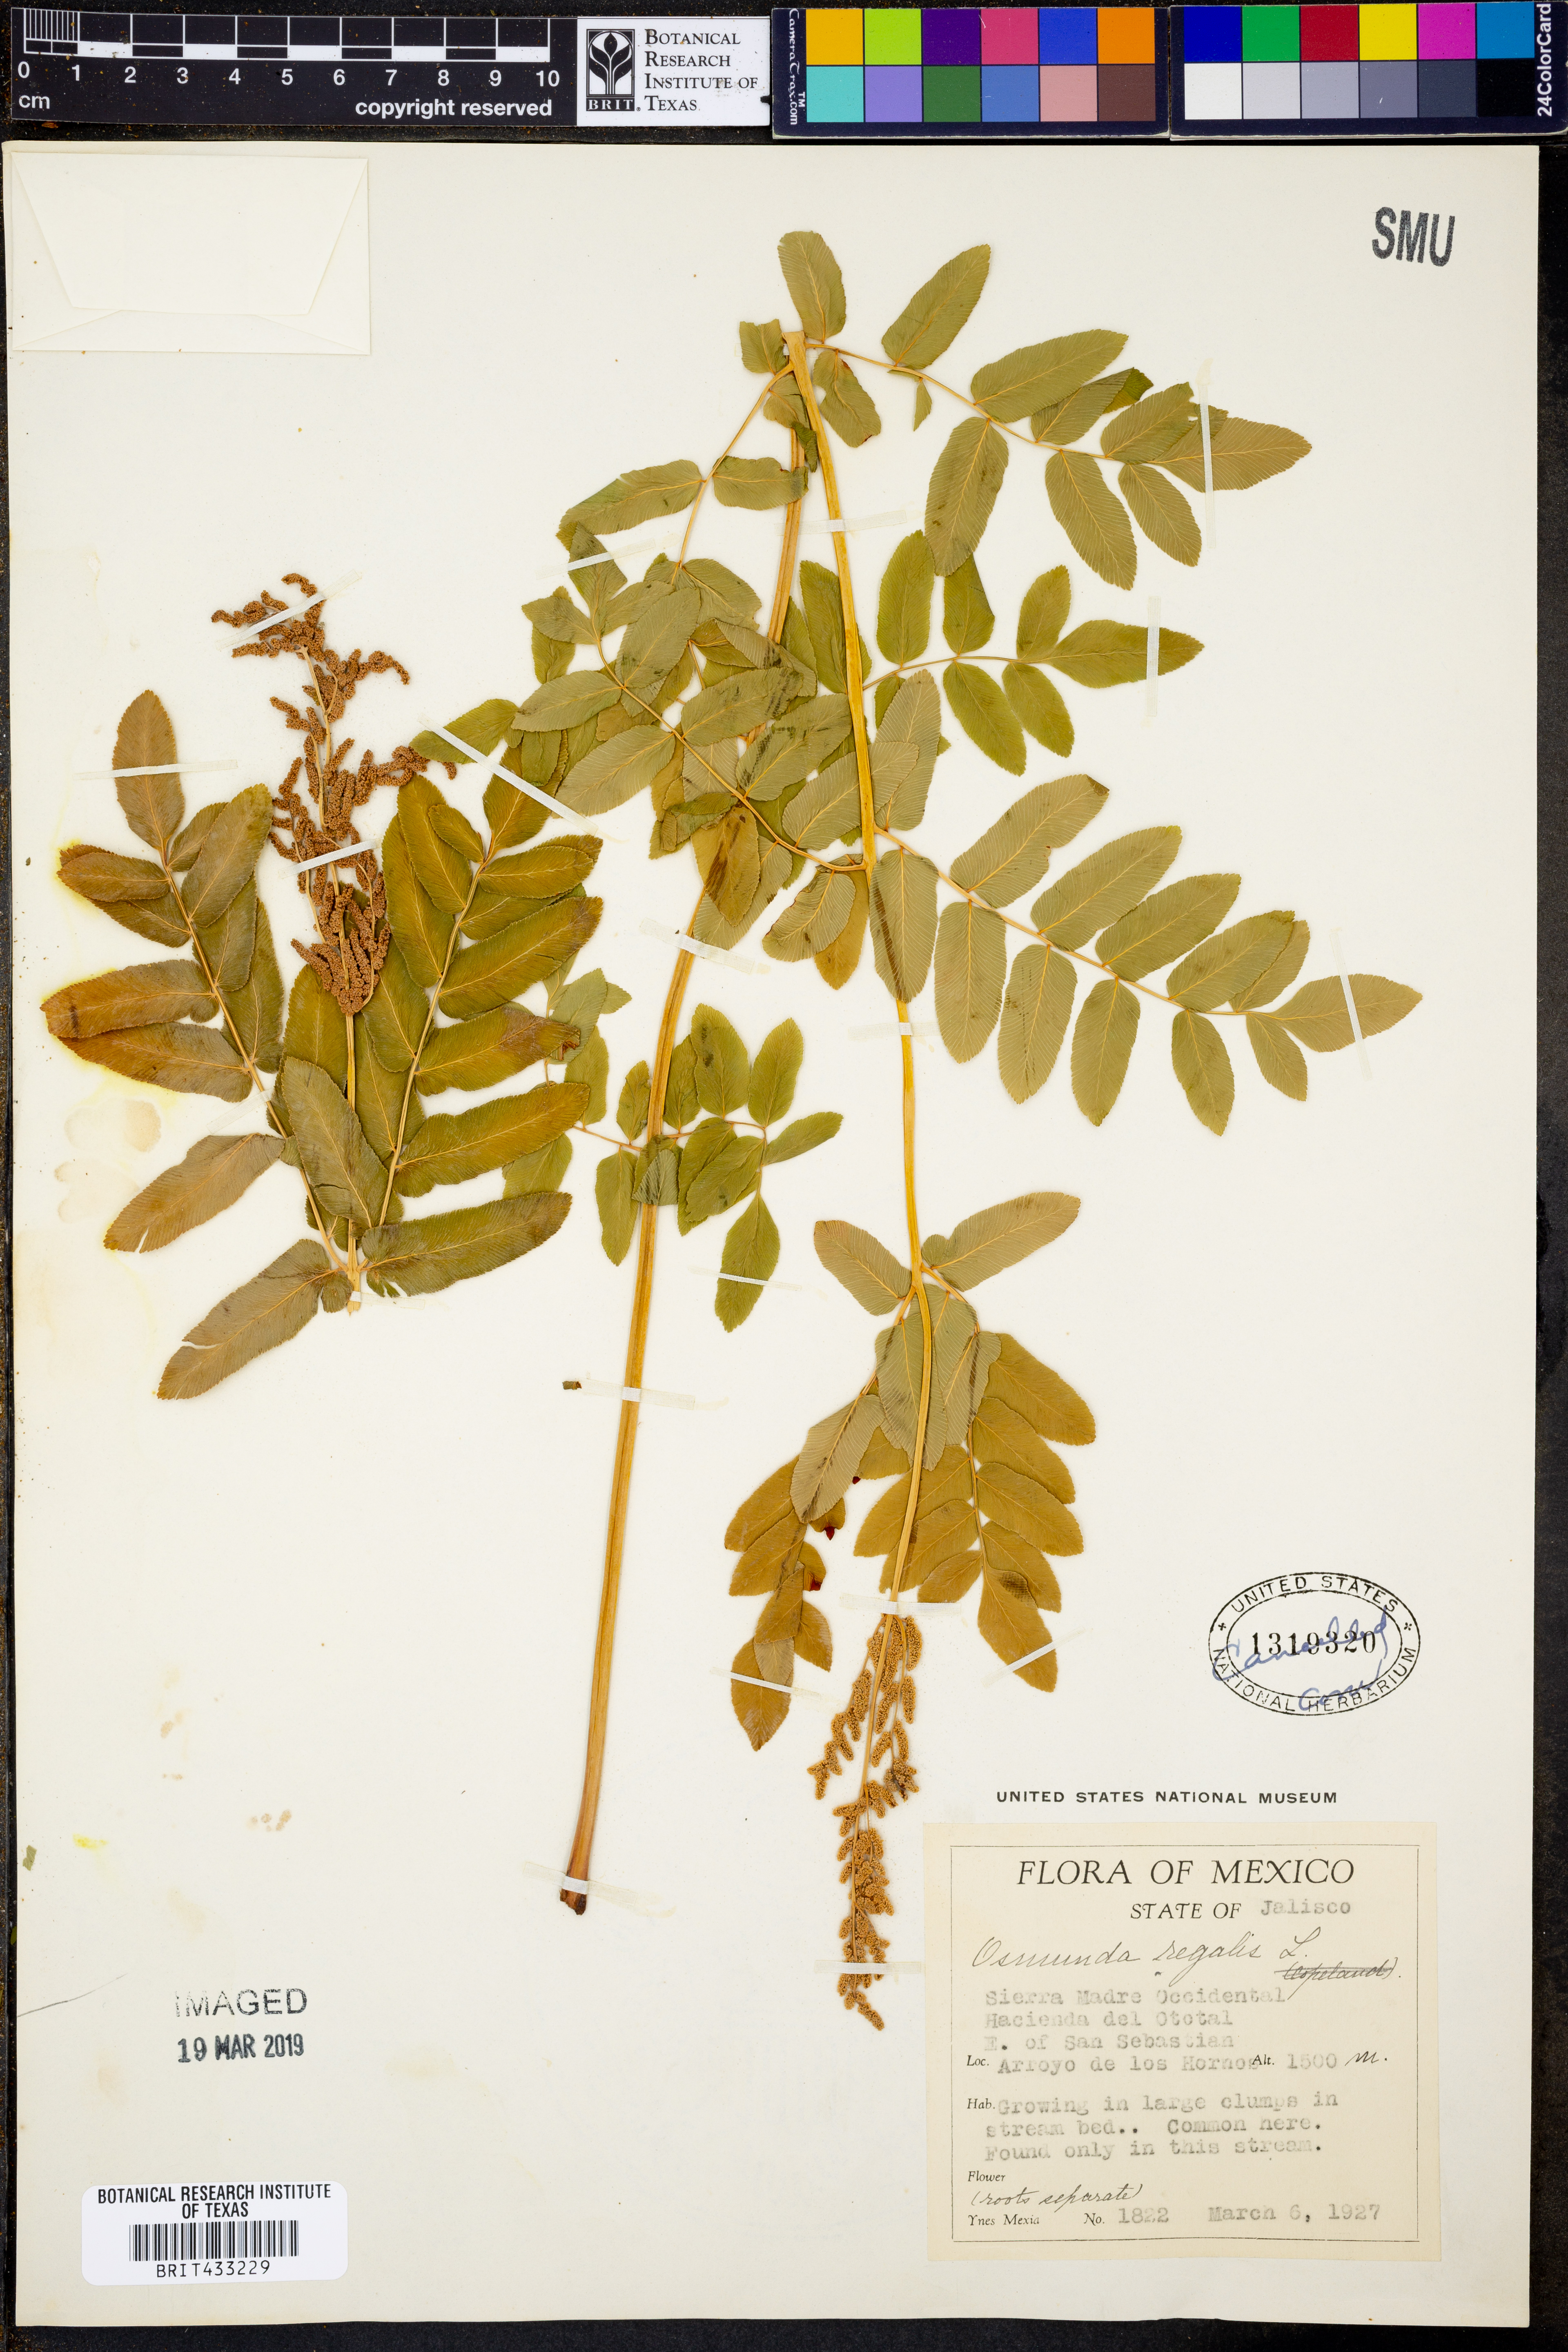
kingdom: Plantae
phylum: Tracheophyta
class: Polypodiopsida
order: Osmundales
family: Osmundaceae
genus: Osmunda
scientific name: Osmunda regalis
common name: Royal fern
